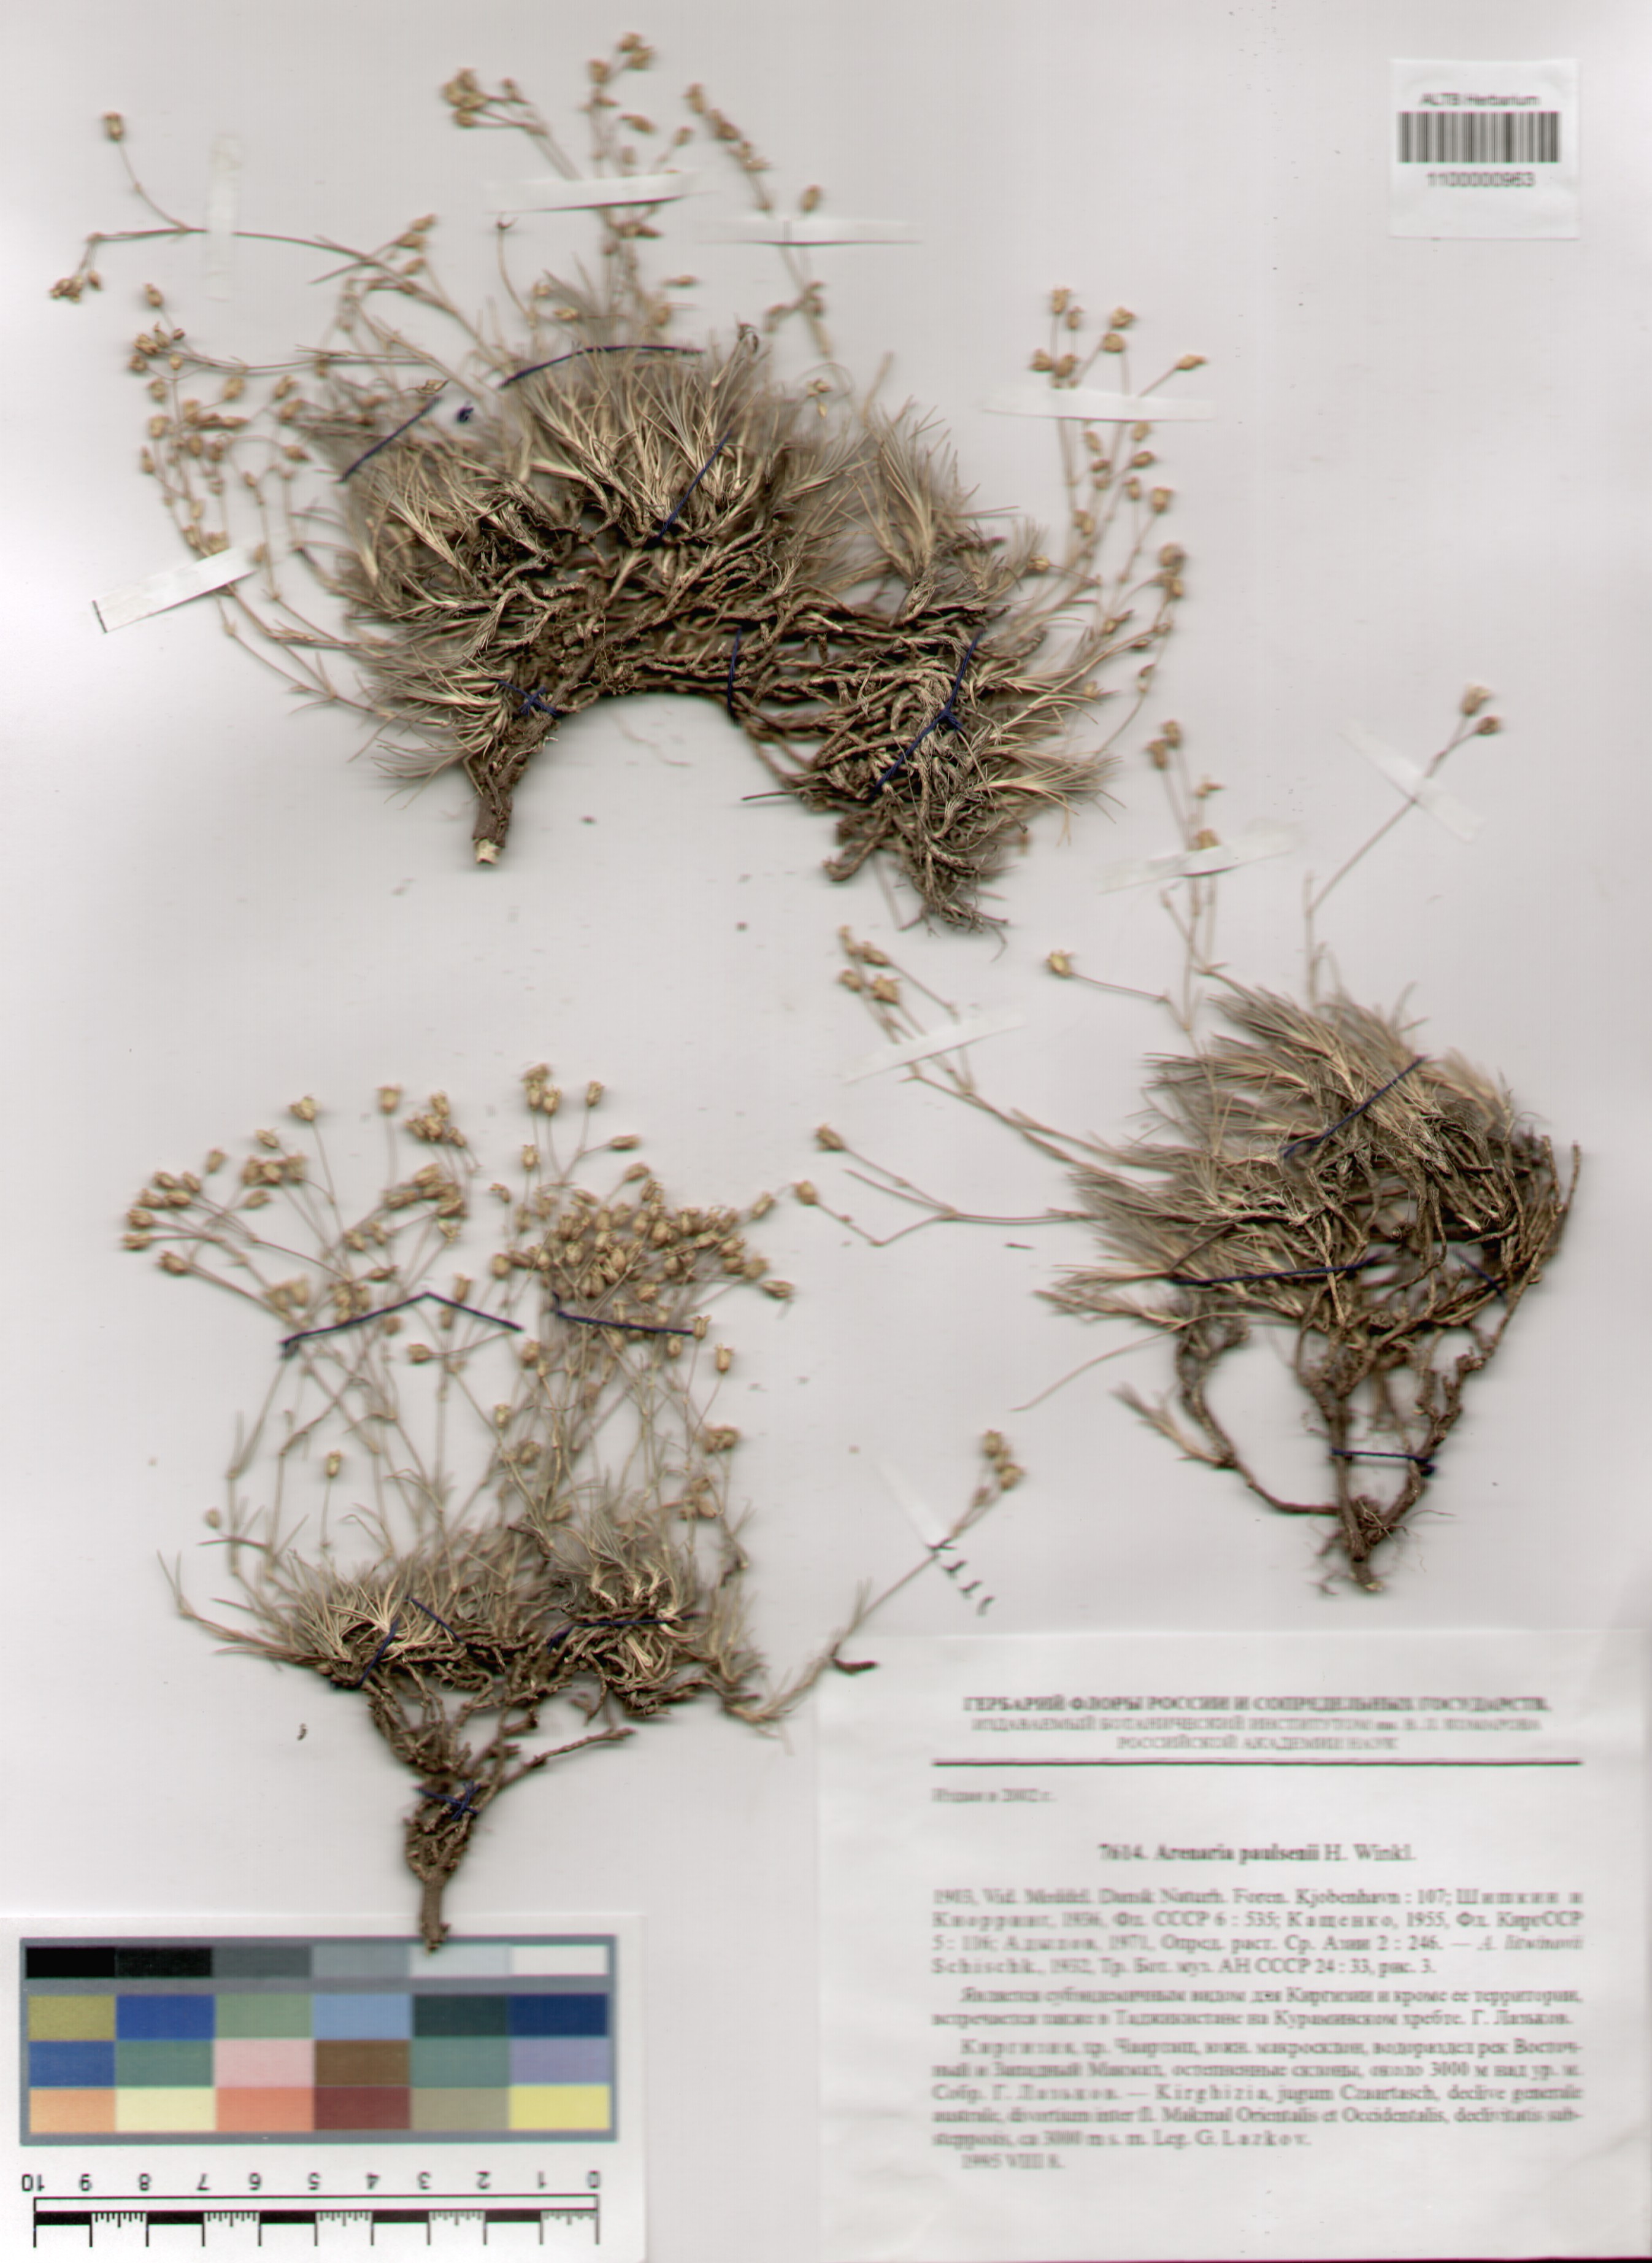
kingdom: Plantae
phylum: Tracheophyta
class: Magnoliopsida
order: Caryophyllales
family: Caryophyllaceae
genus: Eremogone
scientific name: Eremogone paulsenii
